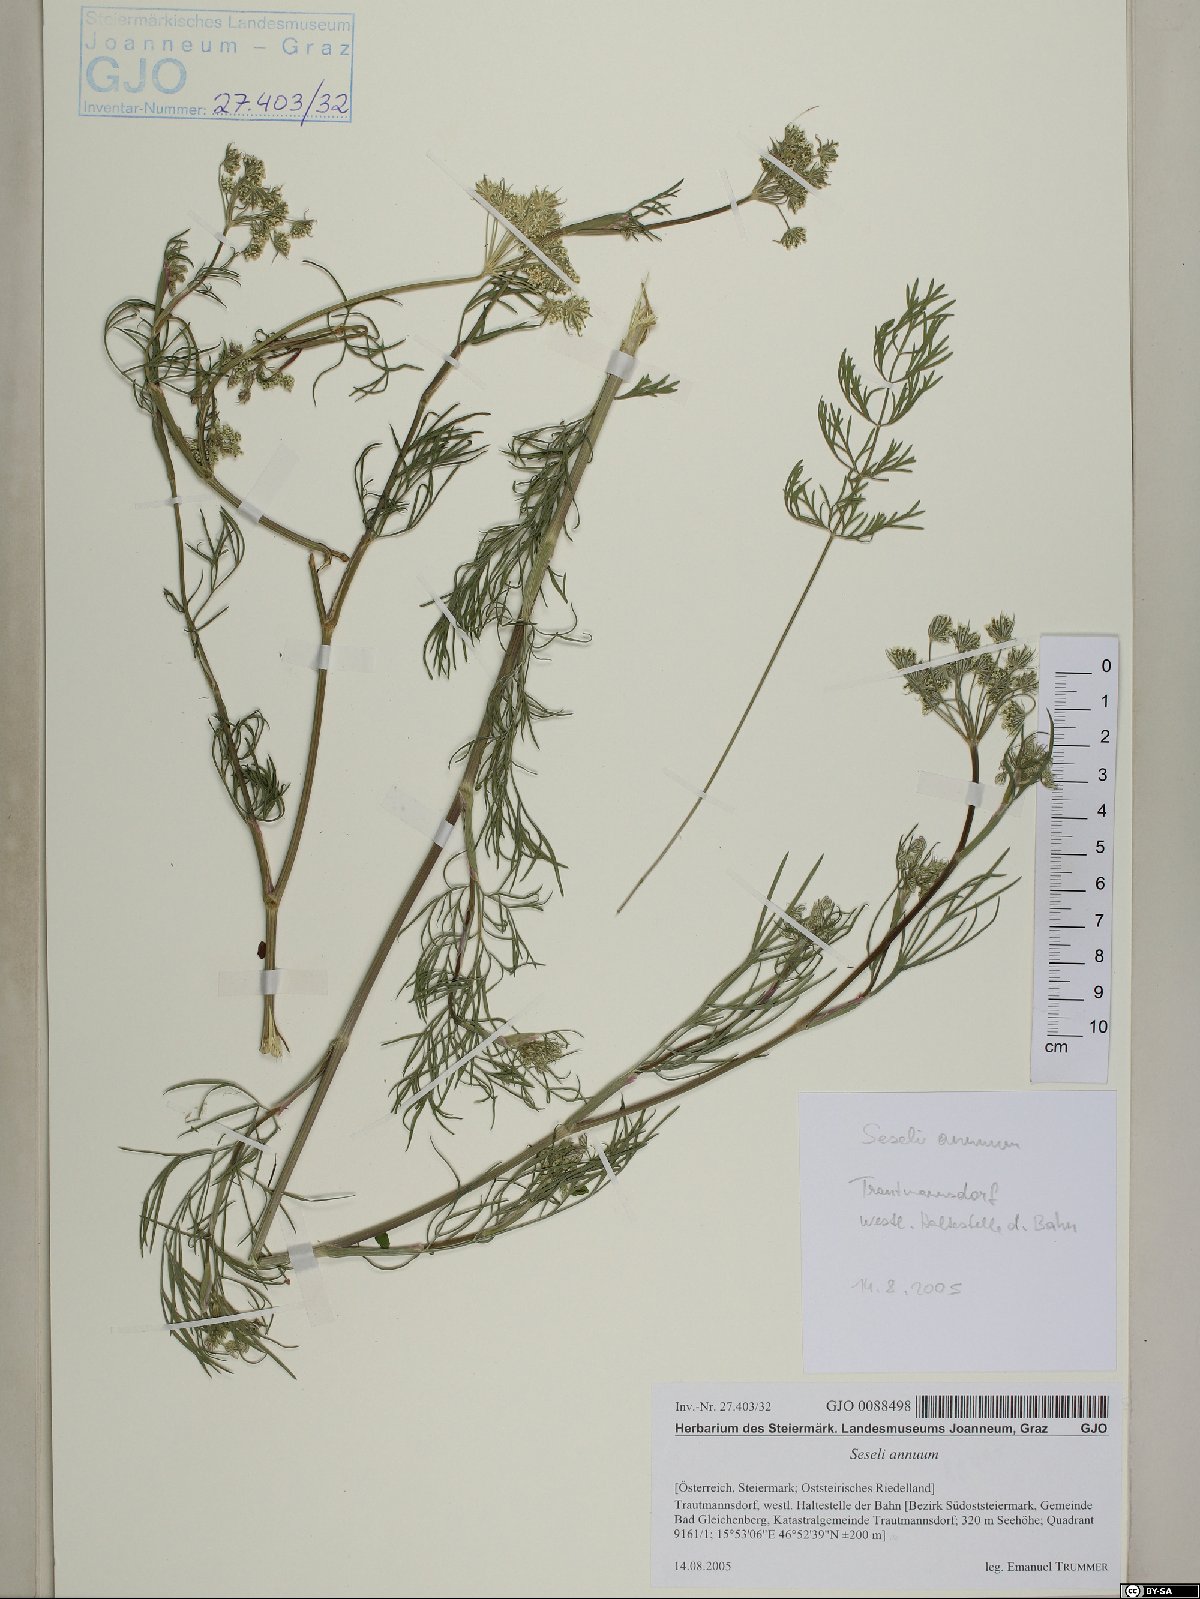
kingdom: Plantae
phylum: Tracheophyta
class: Magnoliopsida
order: Apiales
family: Apiaceae
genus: Seseli
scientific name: Seseli annuum
